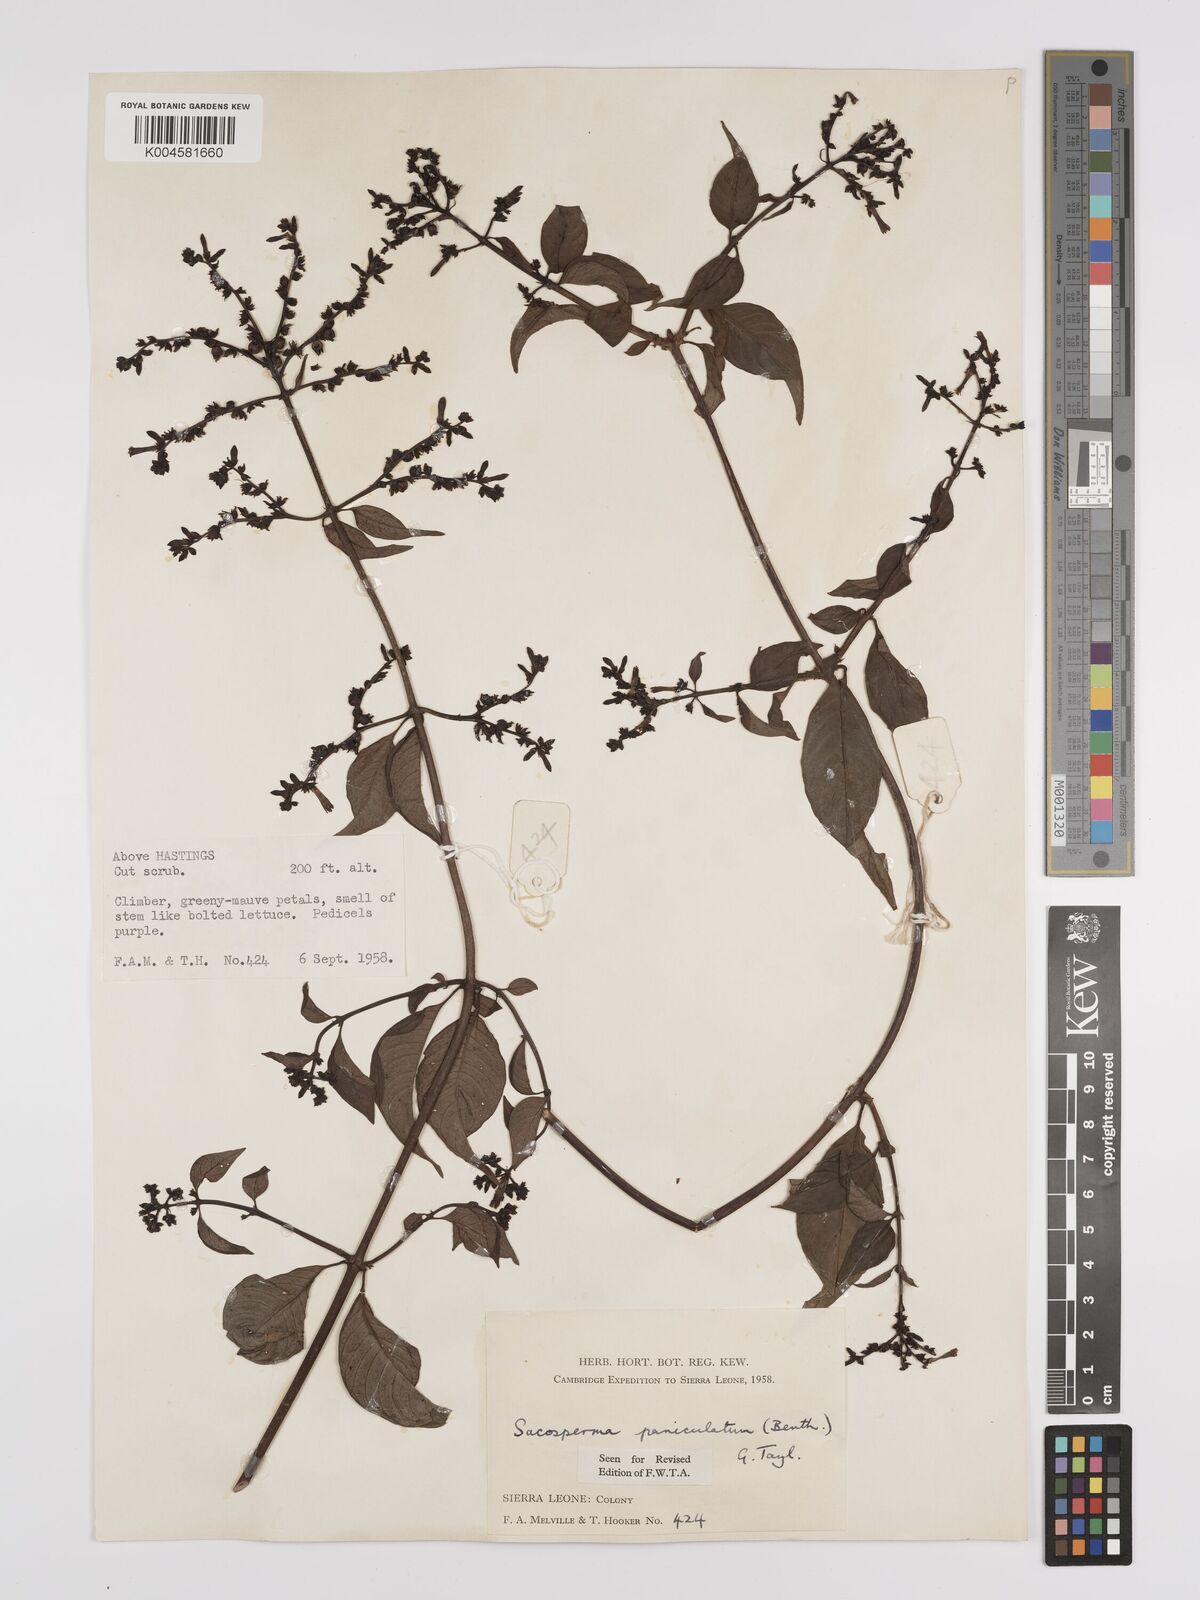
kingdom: Plantae
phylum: Tracheophyta
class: Magnoliopsida
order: Gentianales
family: Rubiaceae
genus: Sacosperma
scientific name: Sacosperma paniculatum
